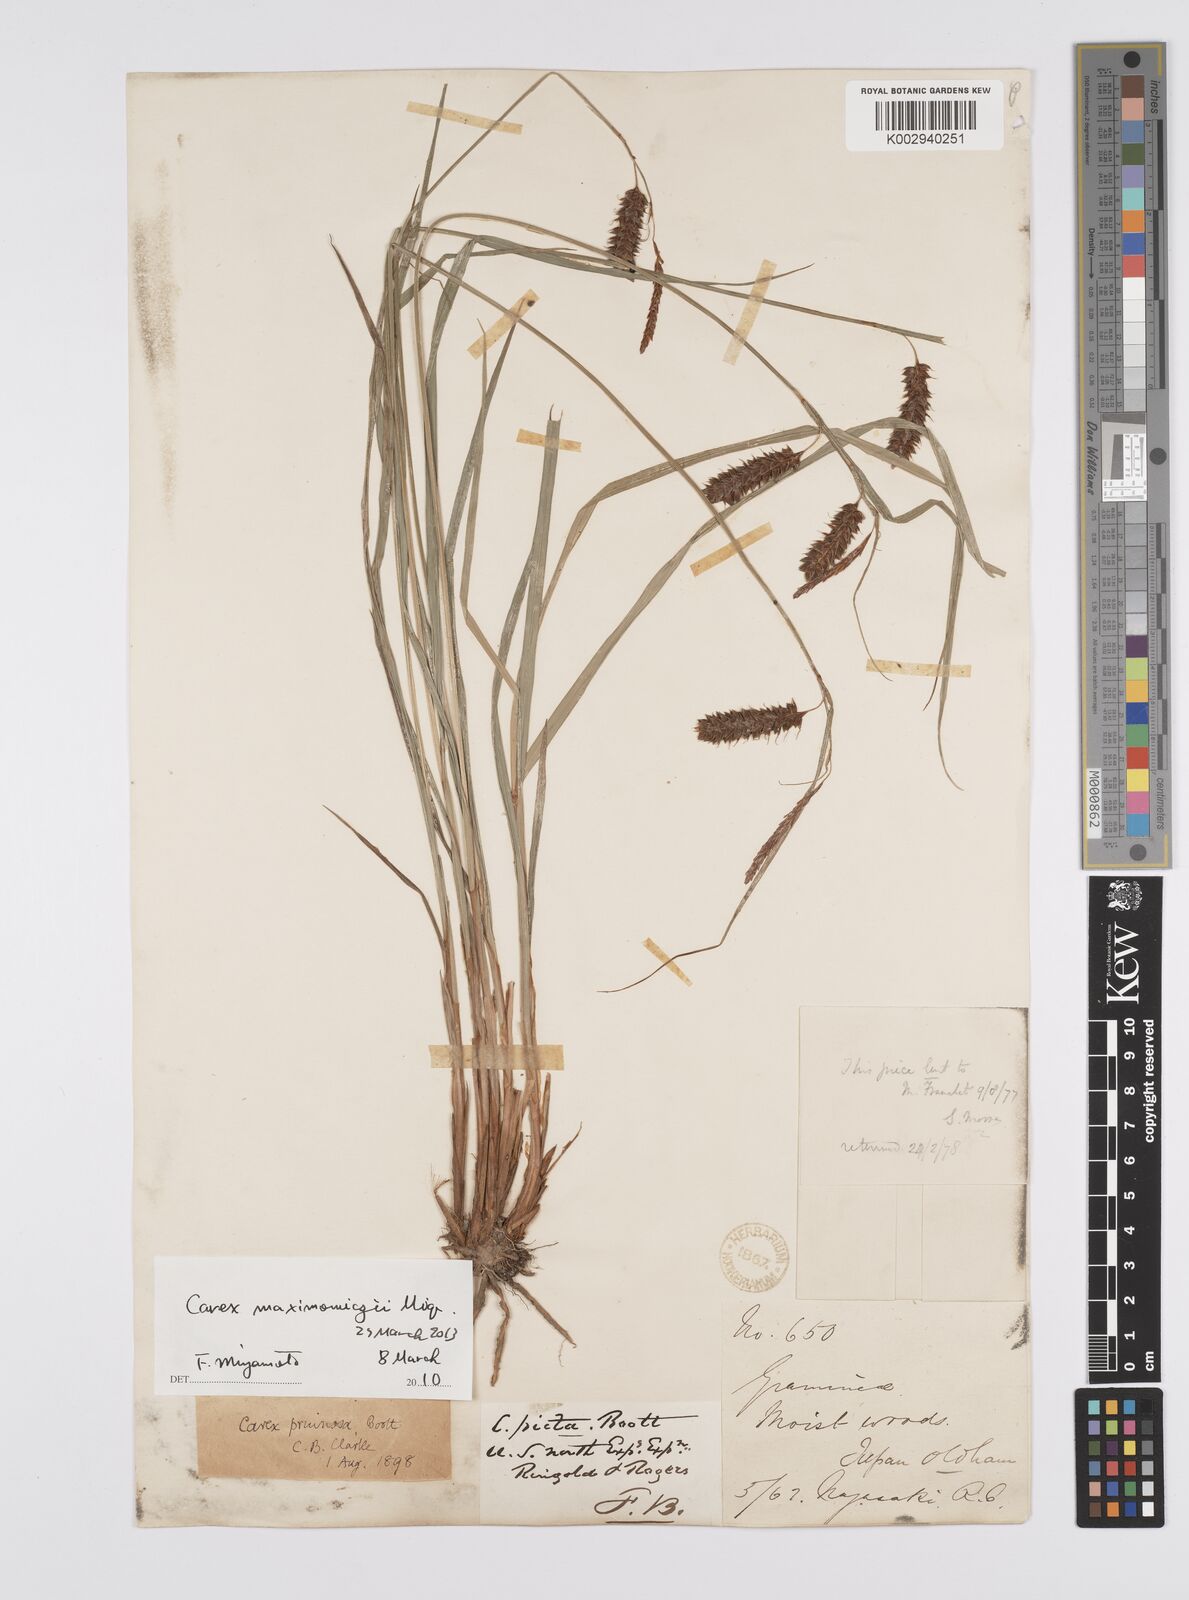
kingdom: Plantae
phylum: Tracheophyta
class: Liliopsida
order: Poales
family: Cyperaceae
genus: Carex
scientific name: Carex pruinosa
